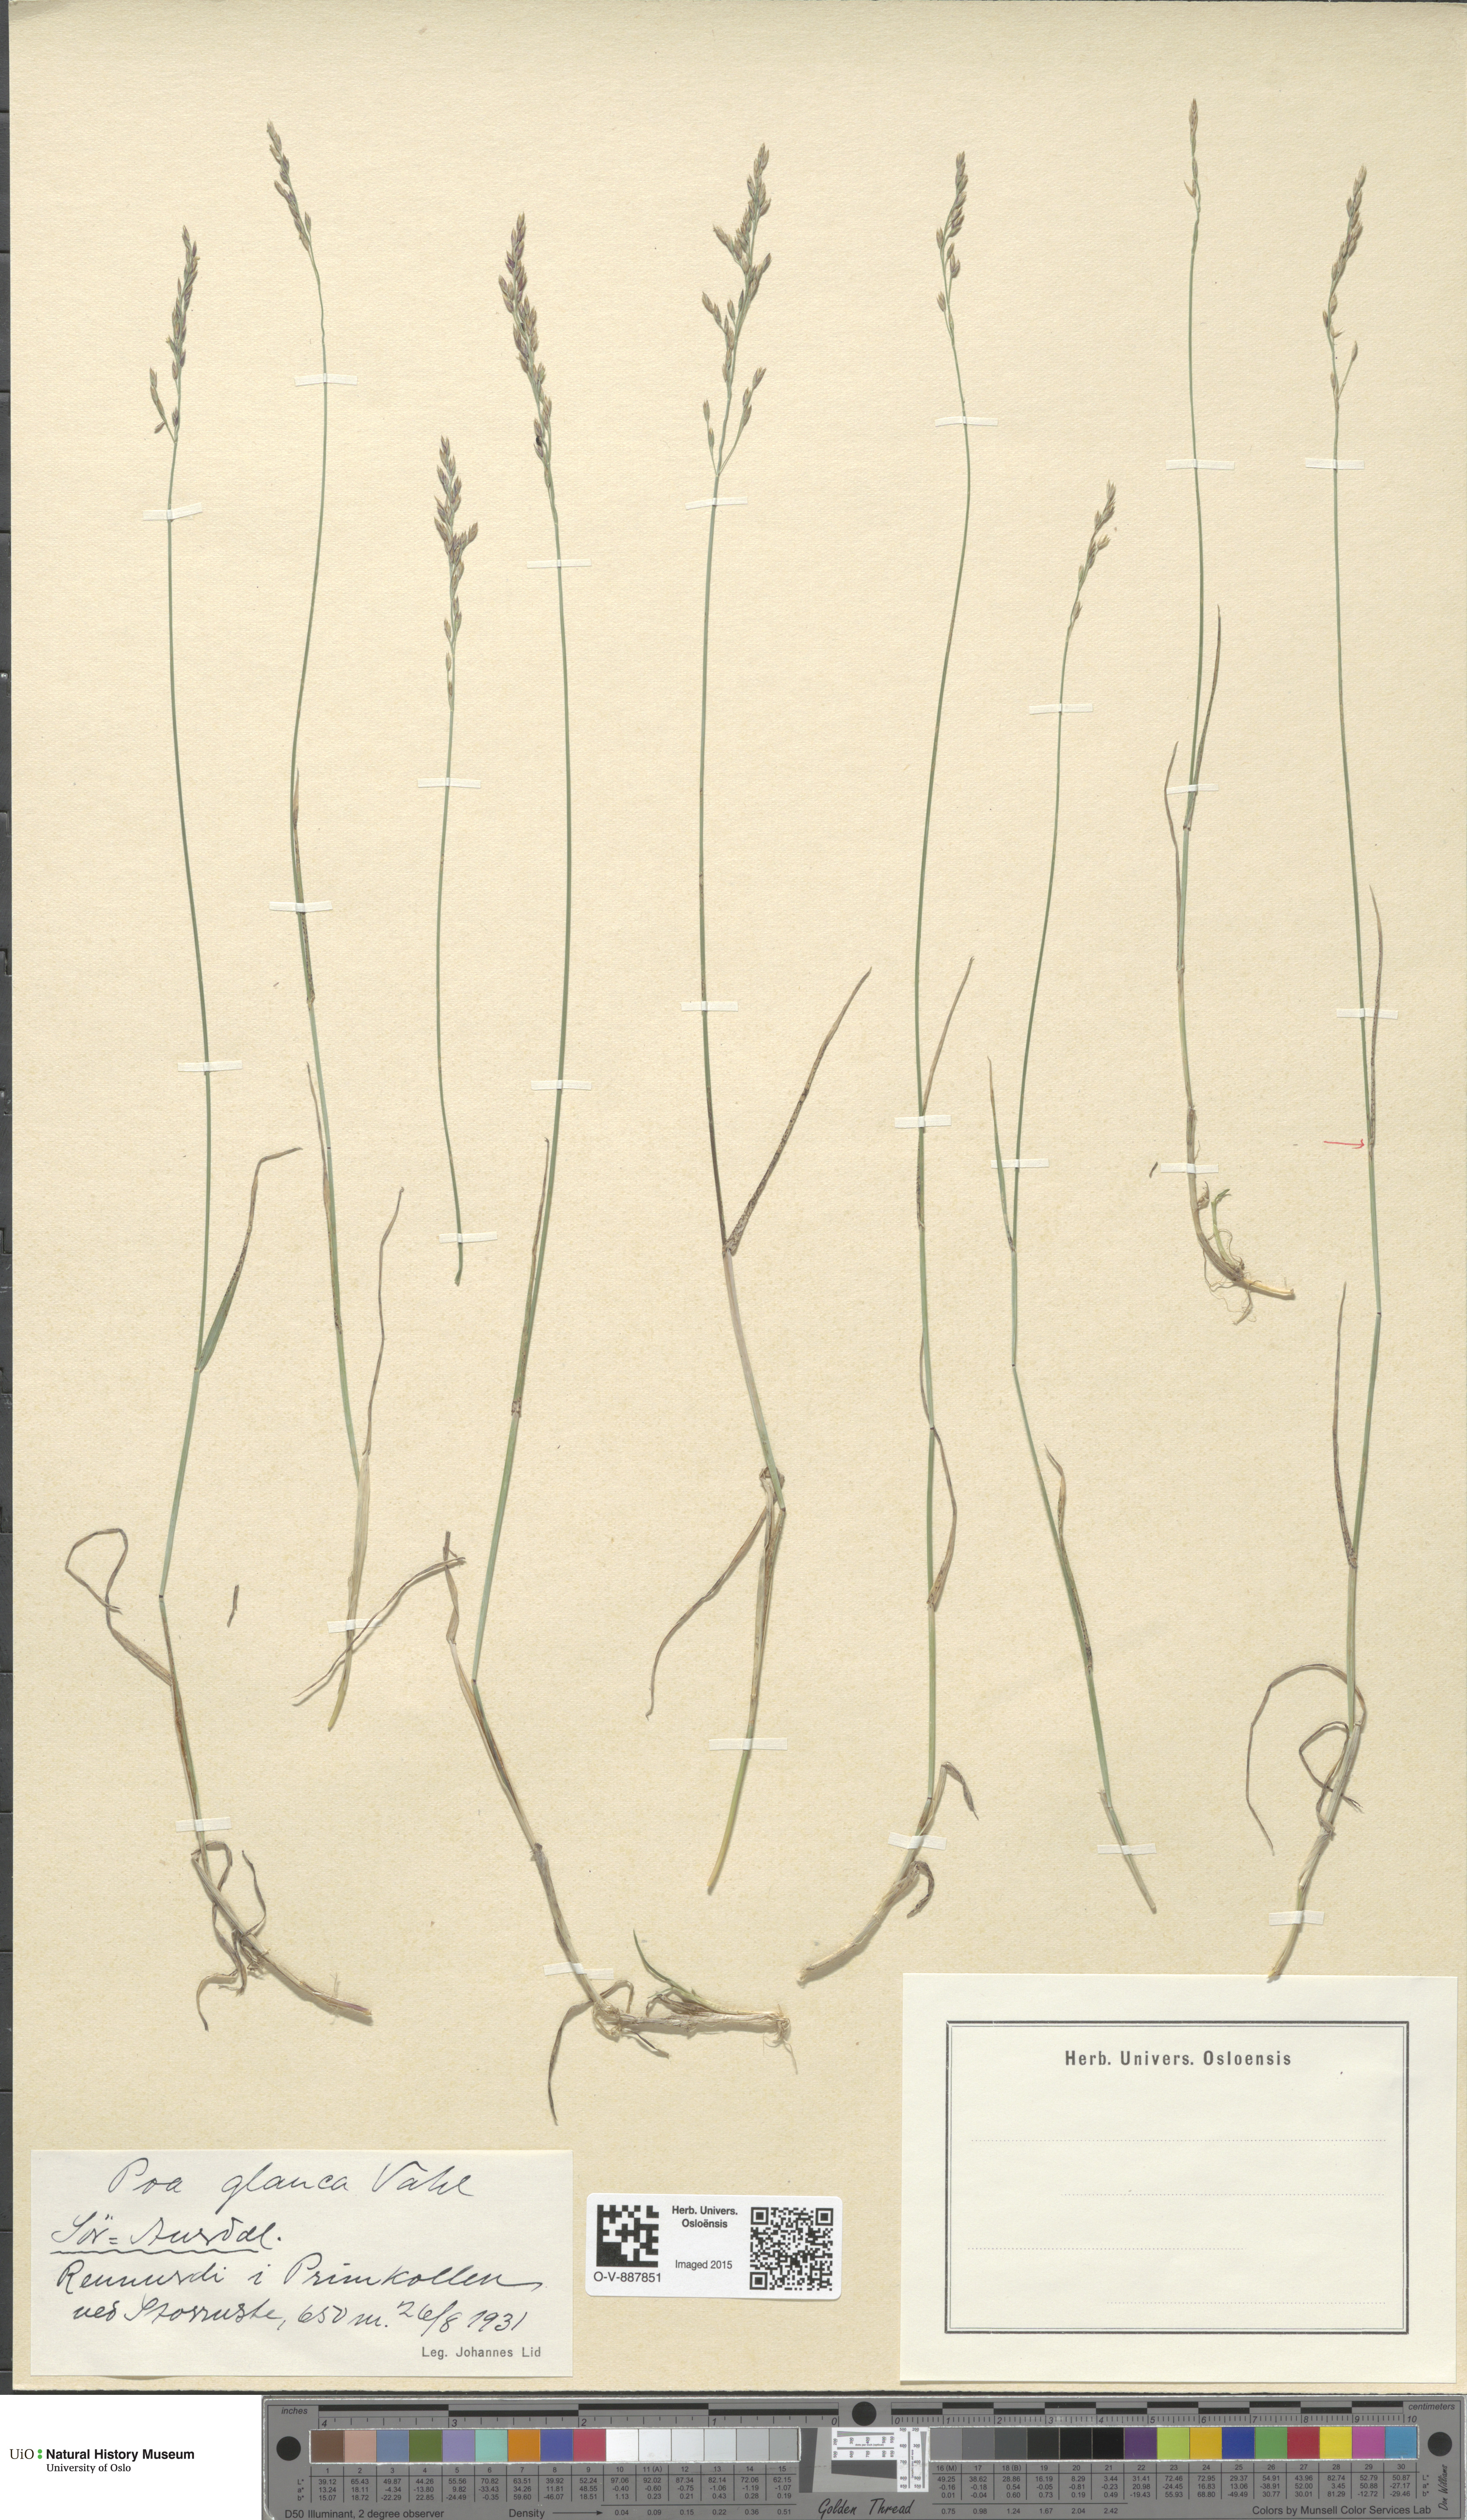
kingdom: Plantae
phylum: Tracheophyta
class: Liliopsida
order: Poales
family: Poaceae
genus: Poa
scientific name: Poa glauca
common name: Glaucous bluegrass
